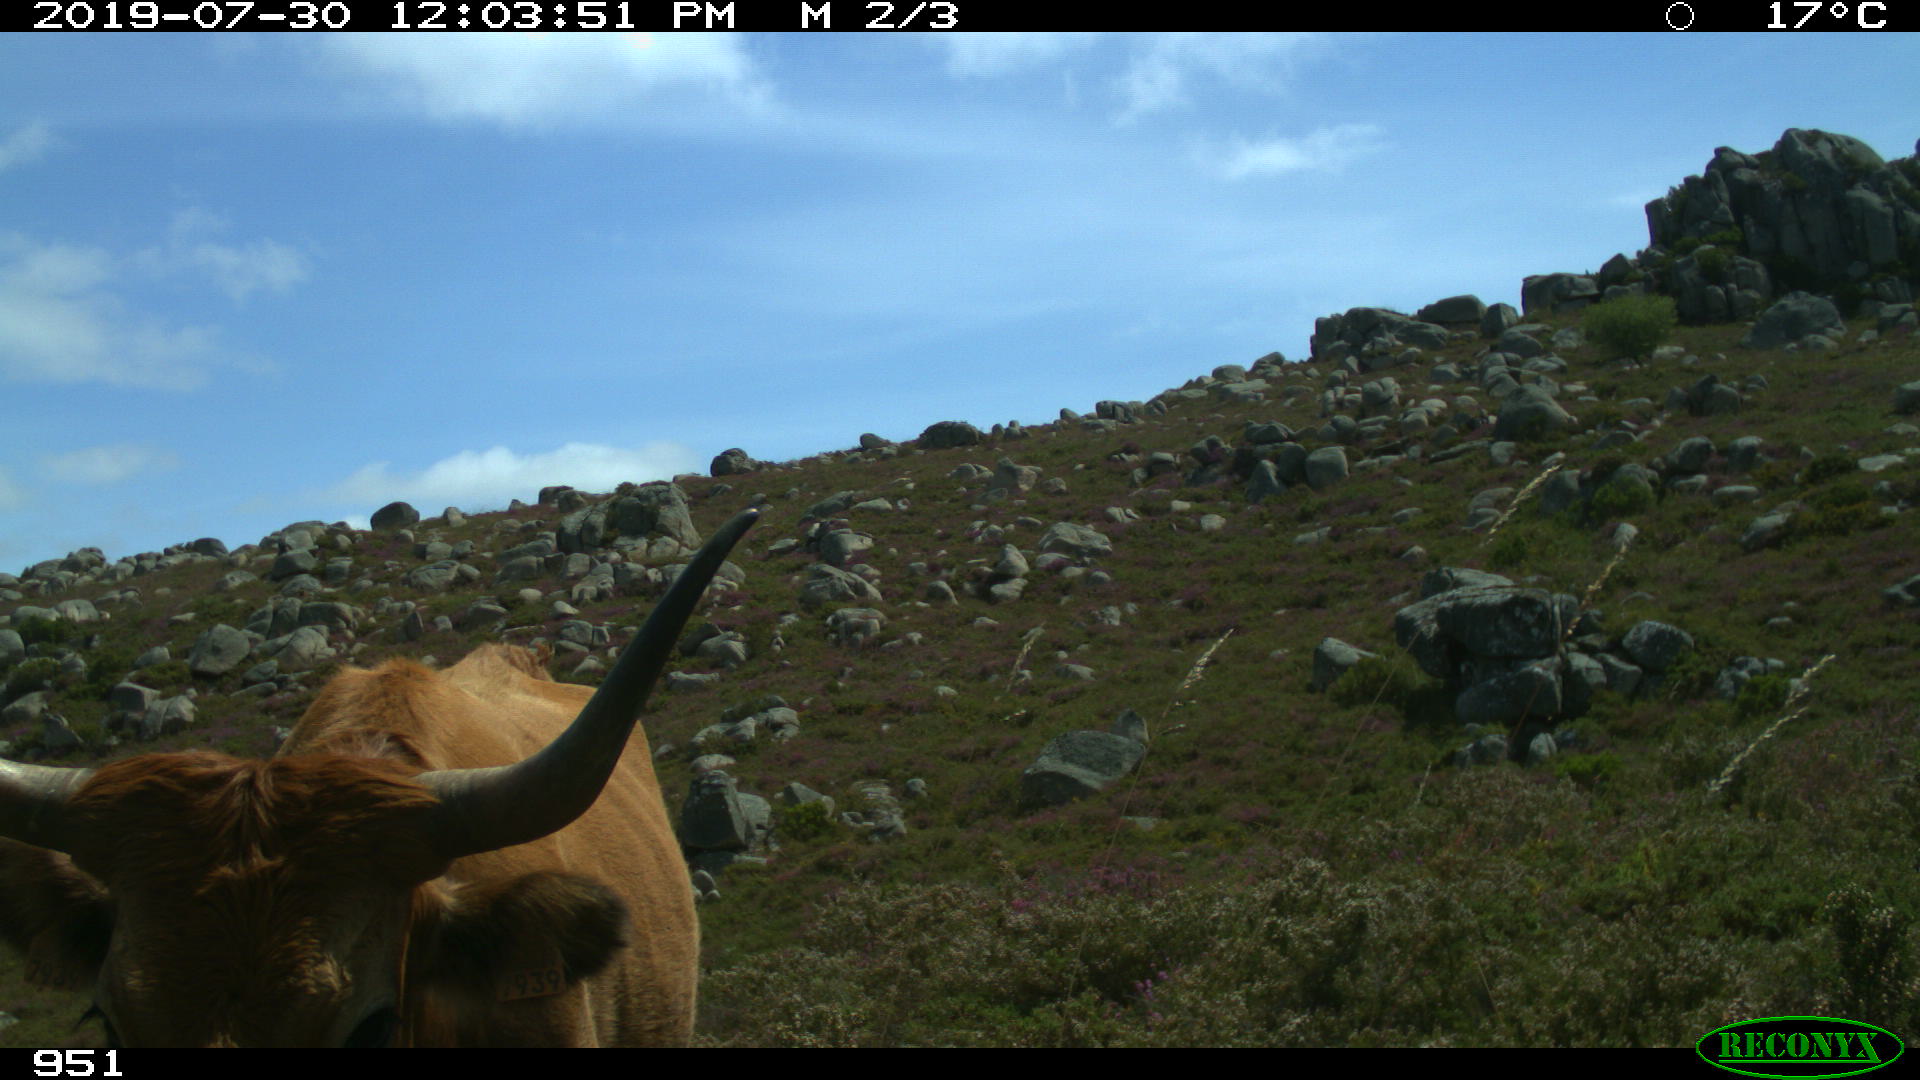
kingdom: Animalia
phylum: Chordata
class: Mammalia
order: Artiodactyla
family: Bovidae
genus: Bos
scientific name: Bos taurus
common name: Domesticated cattle
